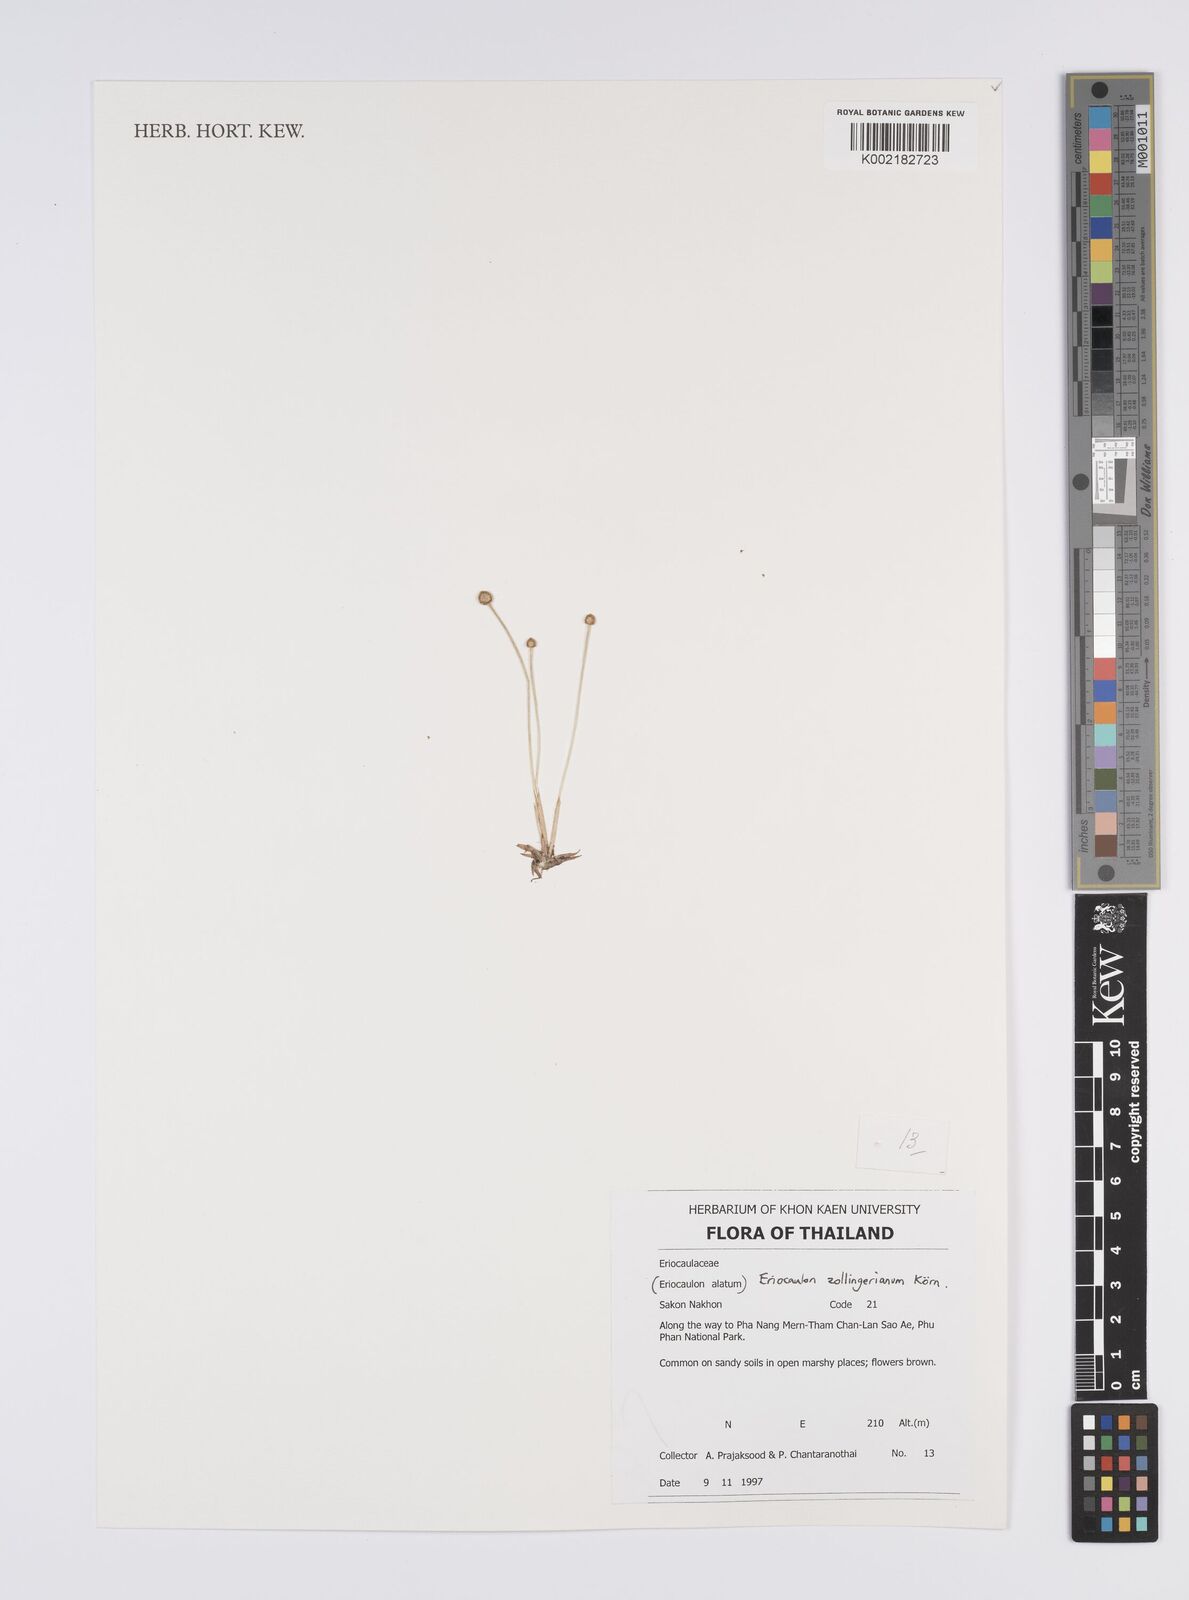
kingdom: Plantae
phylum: Tracheophyta
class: Liliopsida
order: Poales
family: Eriocaulaceae
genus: Eriocaulon
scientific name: Eriocaulon zollingerianum
